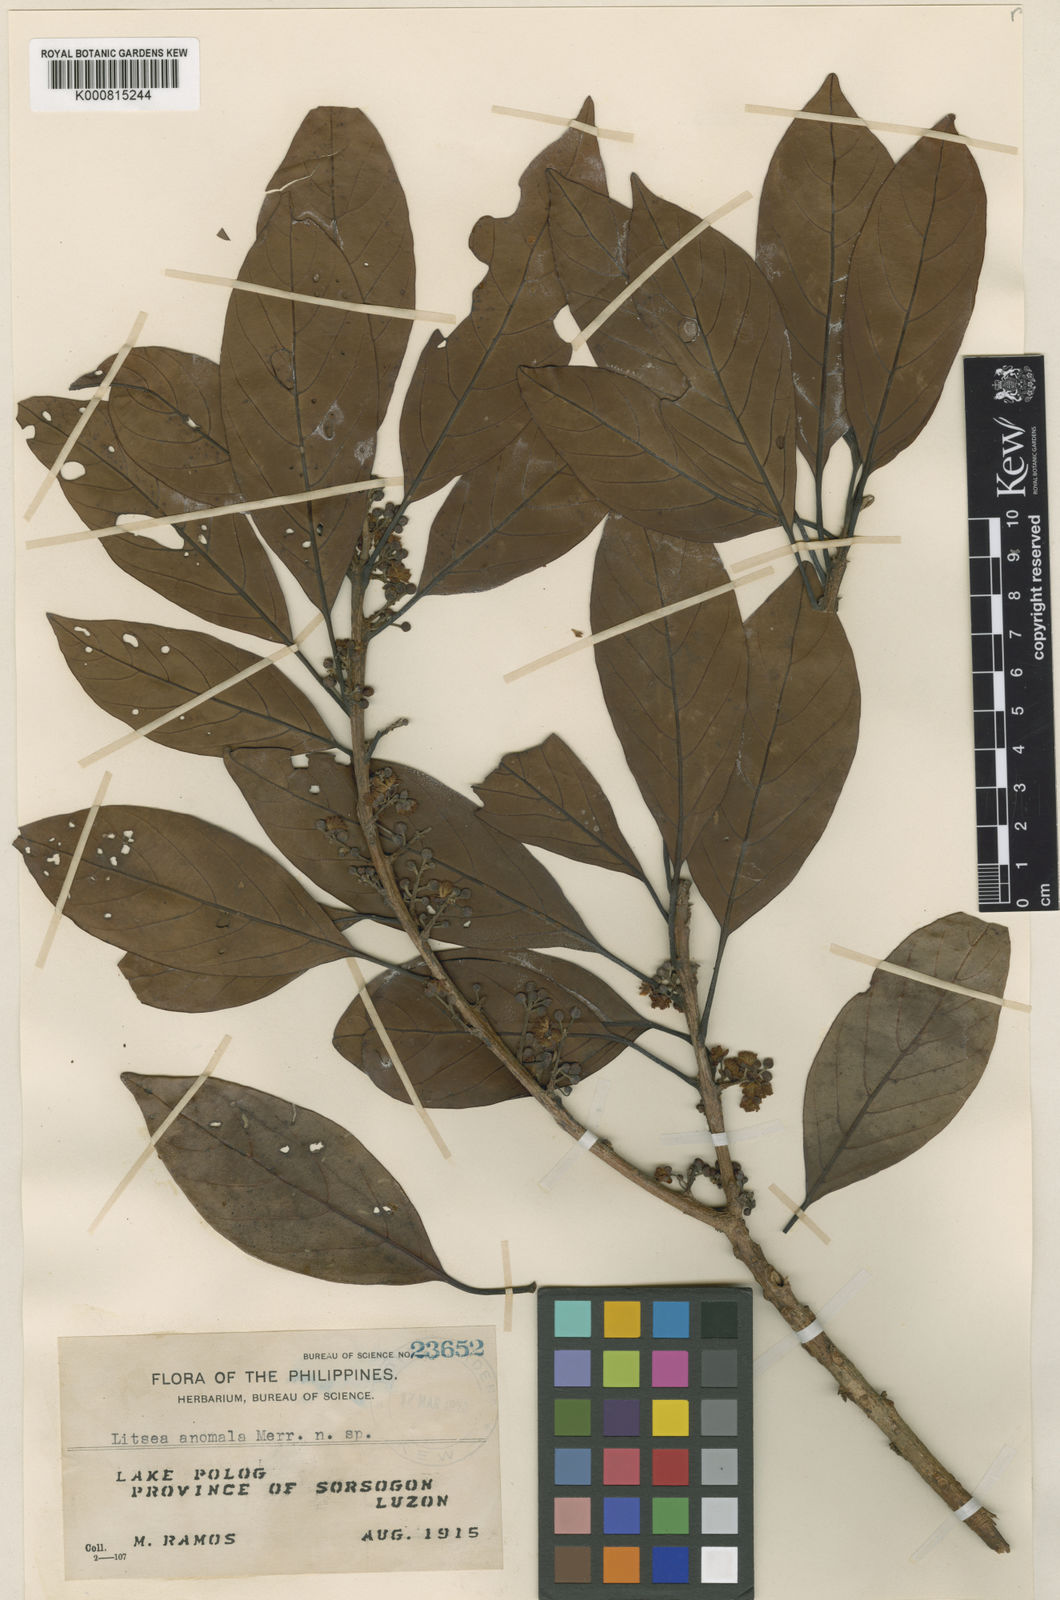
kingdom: Plantae
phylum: Tracheophyta
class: Magnoliopsida
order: Laurales
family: Lauraceae
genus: Litsea
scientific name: Litsea anomala
